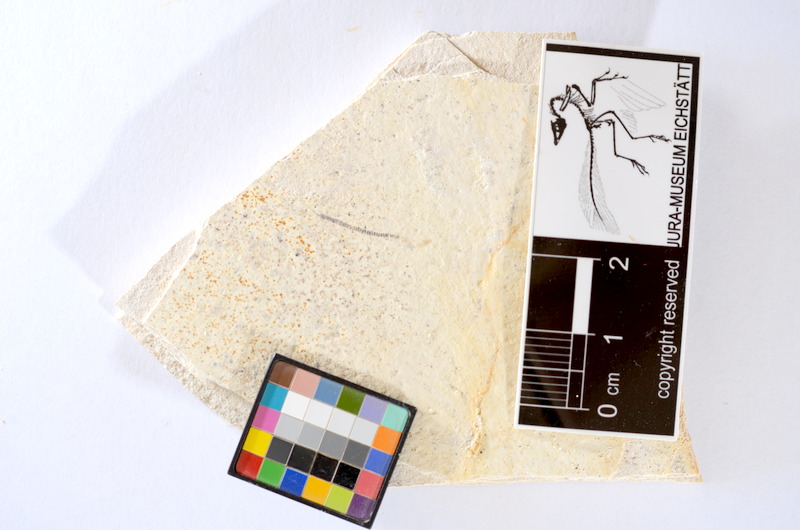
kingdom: Animalia
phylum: Chordata
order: Salmoniformes
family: Orthogonikleithridae
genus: Orthogonikleithrus
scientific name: Orthogonikleithrus hoelli
